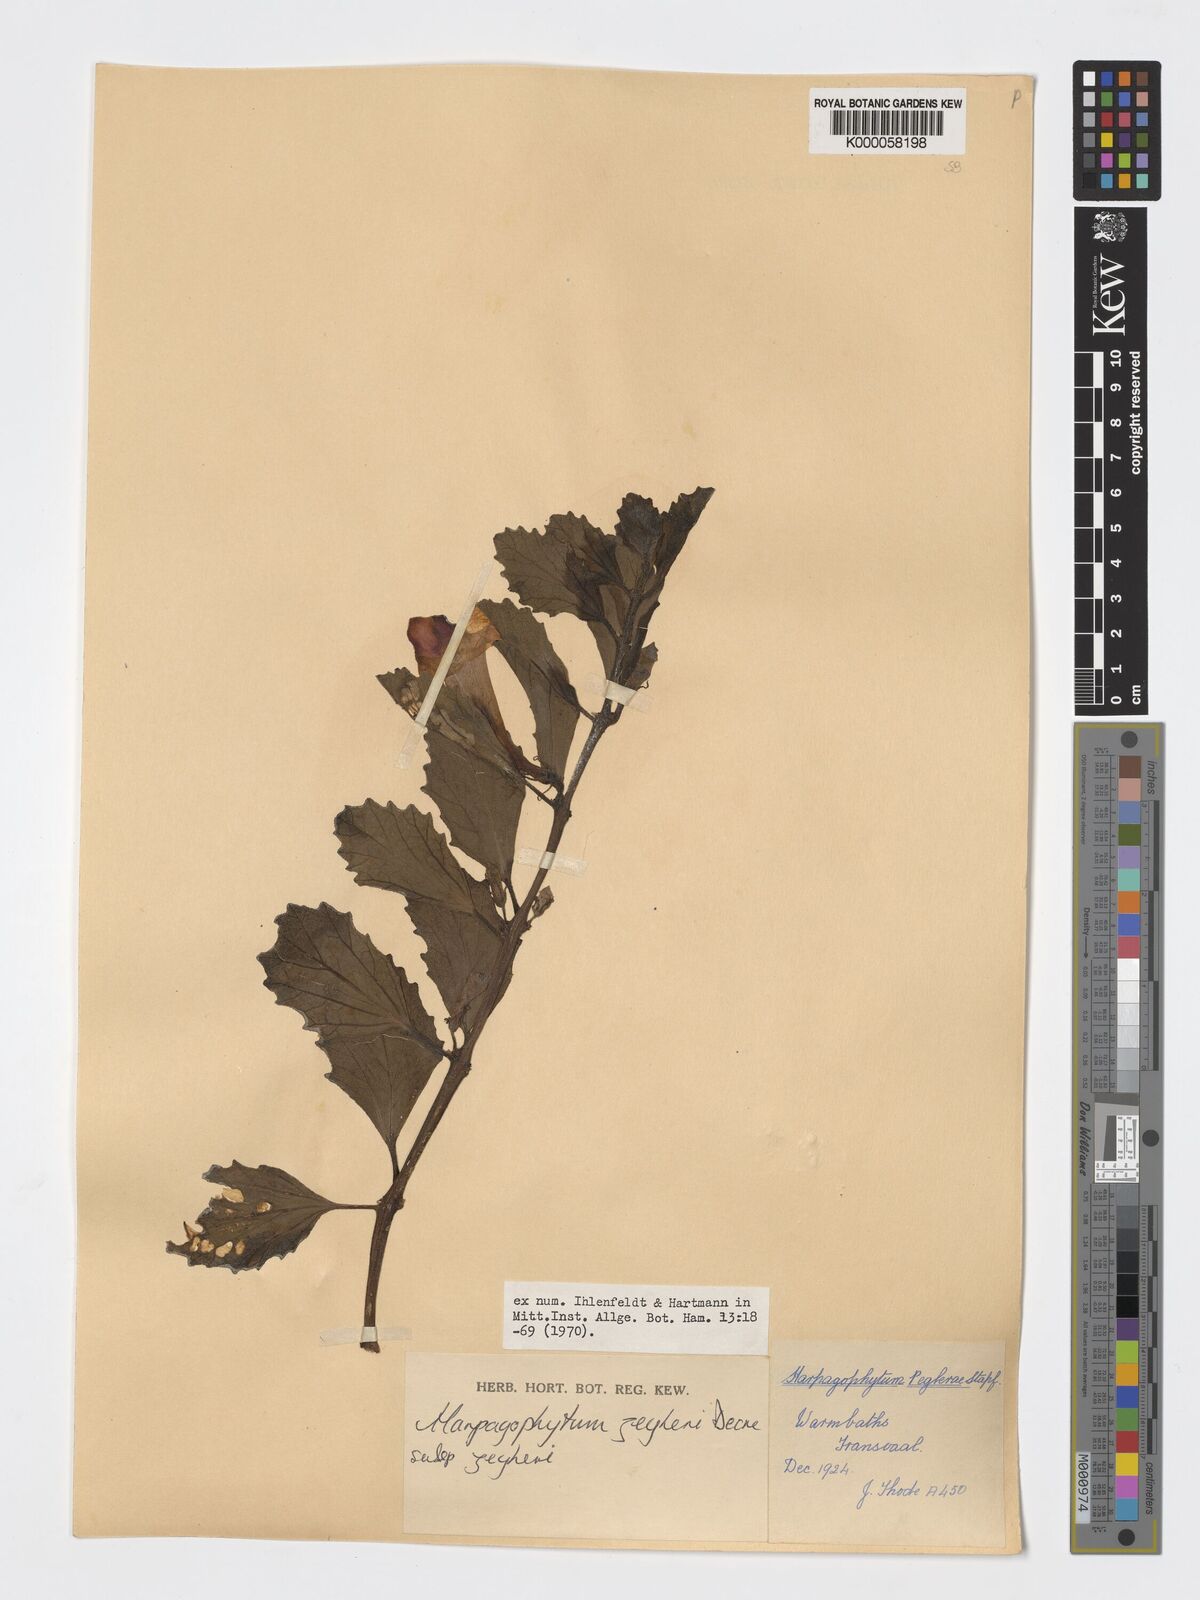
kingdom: Plantae
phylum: Tracheophyta
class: Magnoliopsida
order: Lamiales
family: Pedaliaceae
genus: Harpagophytum
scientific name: Harpagophytum zeyheri
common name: Grappleplant
